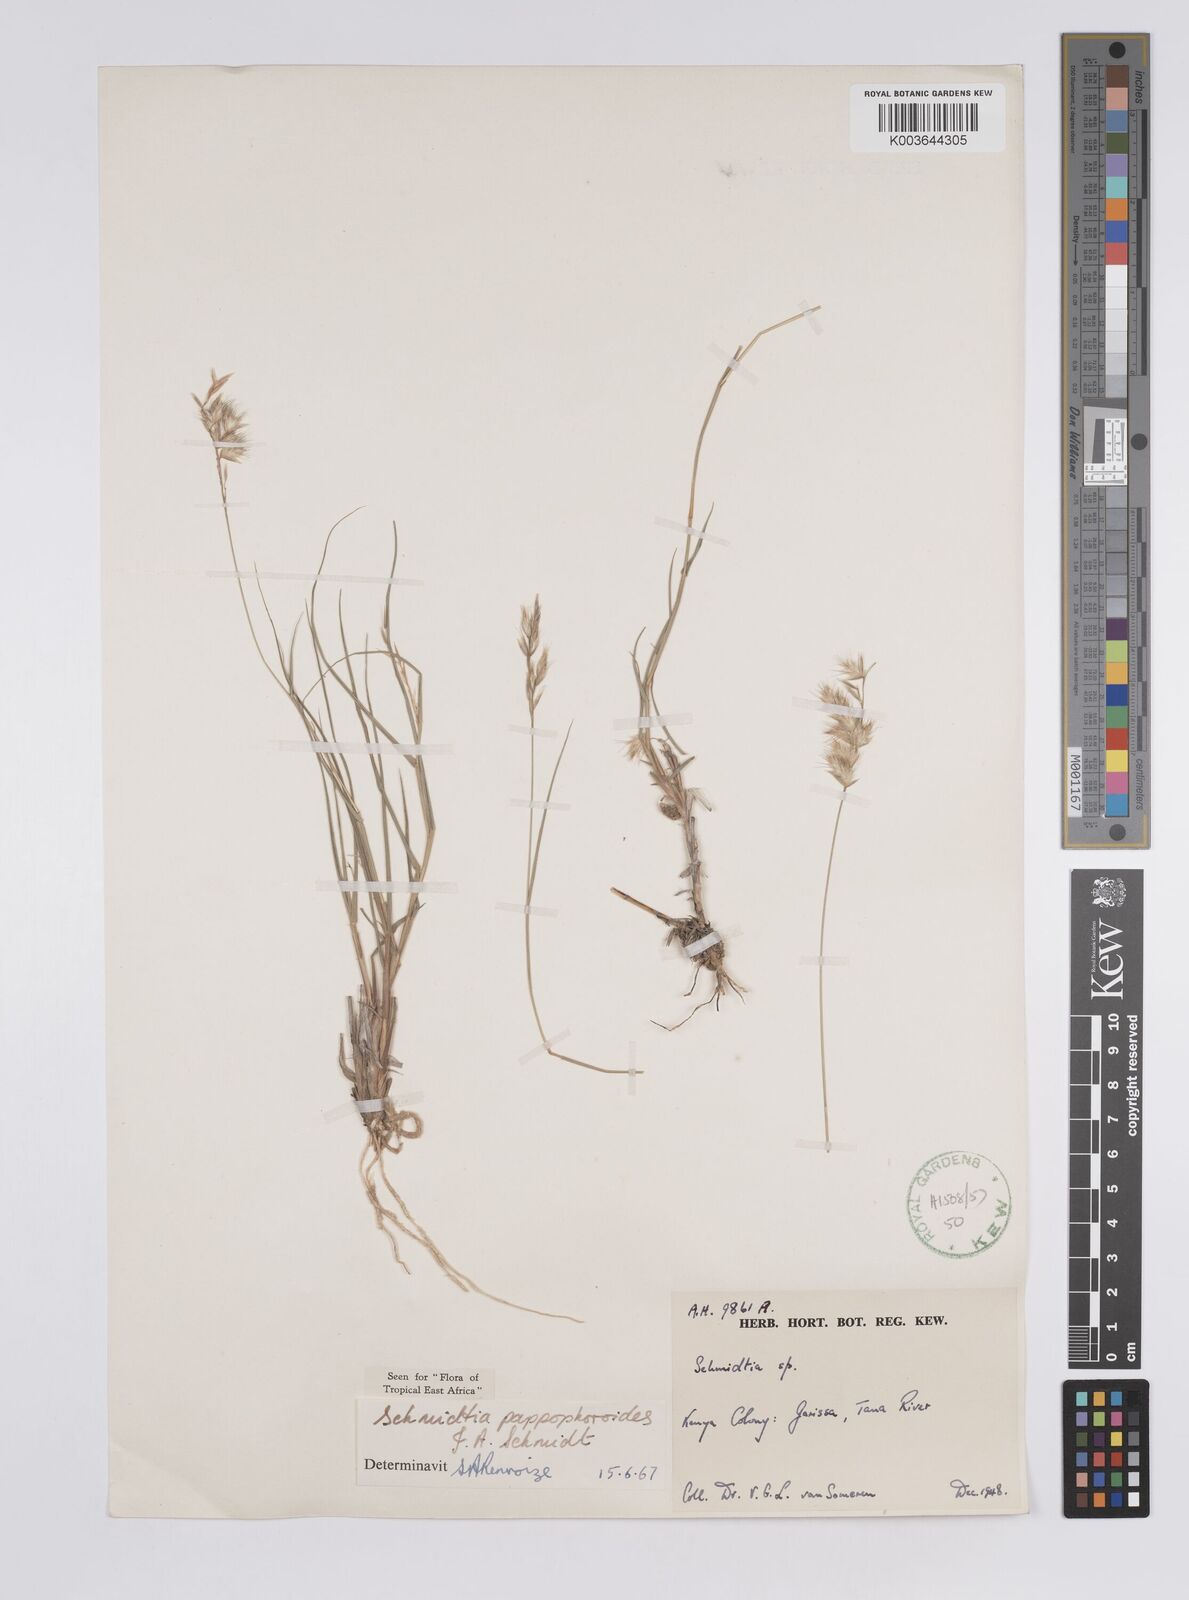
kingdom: Plantae
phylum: Tracheophyta
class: Liliopsida
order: Poales
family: Poaceae
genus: Schmidtia
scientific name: Schmidtia pappophoroides
